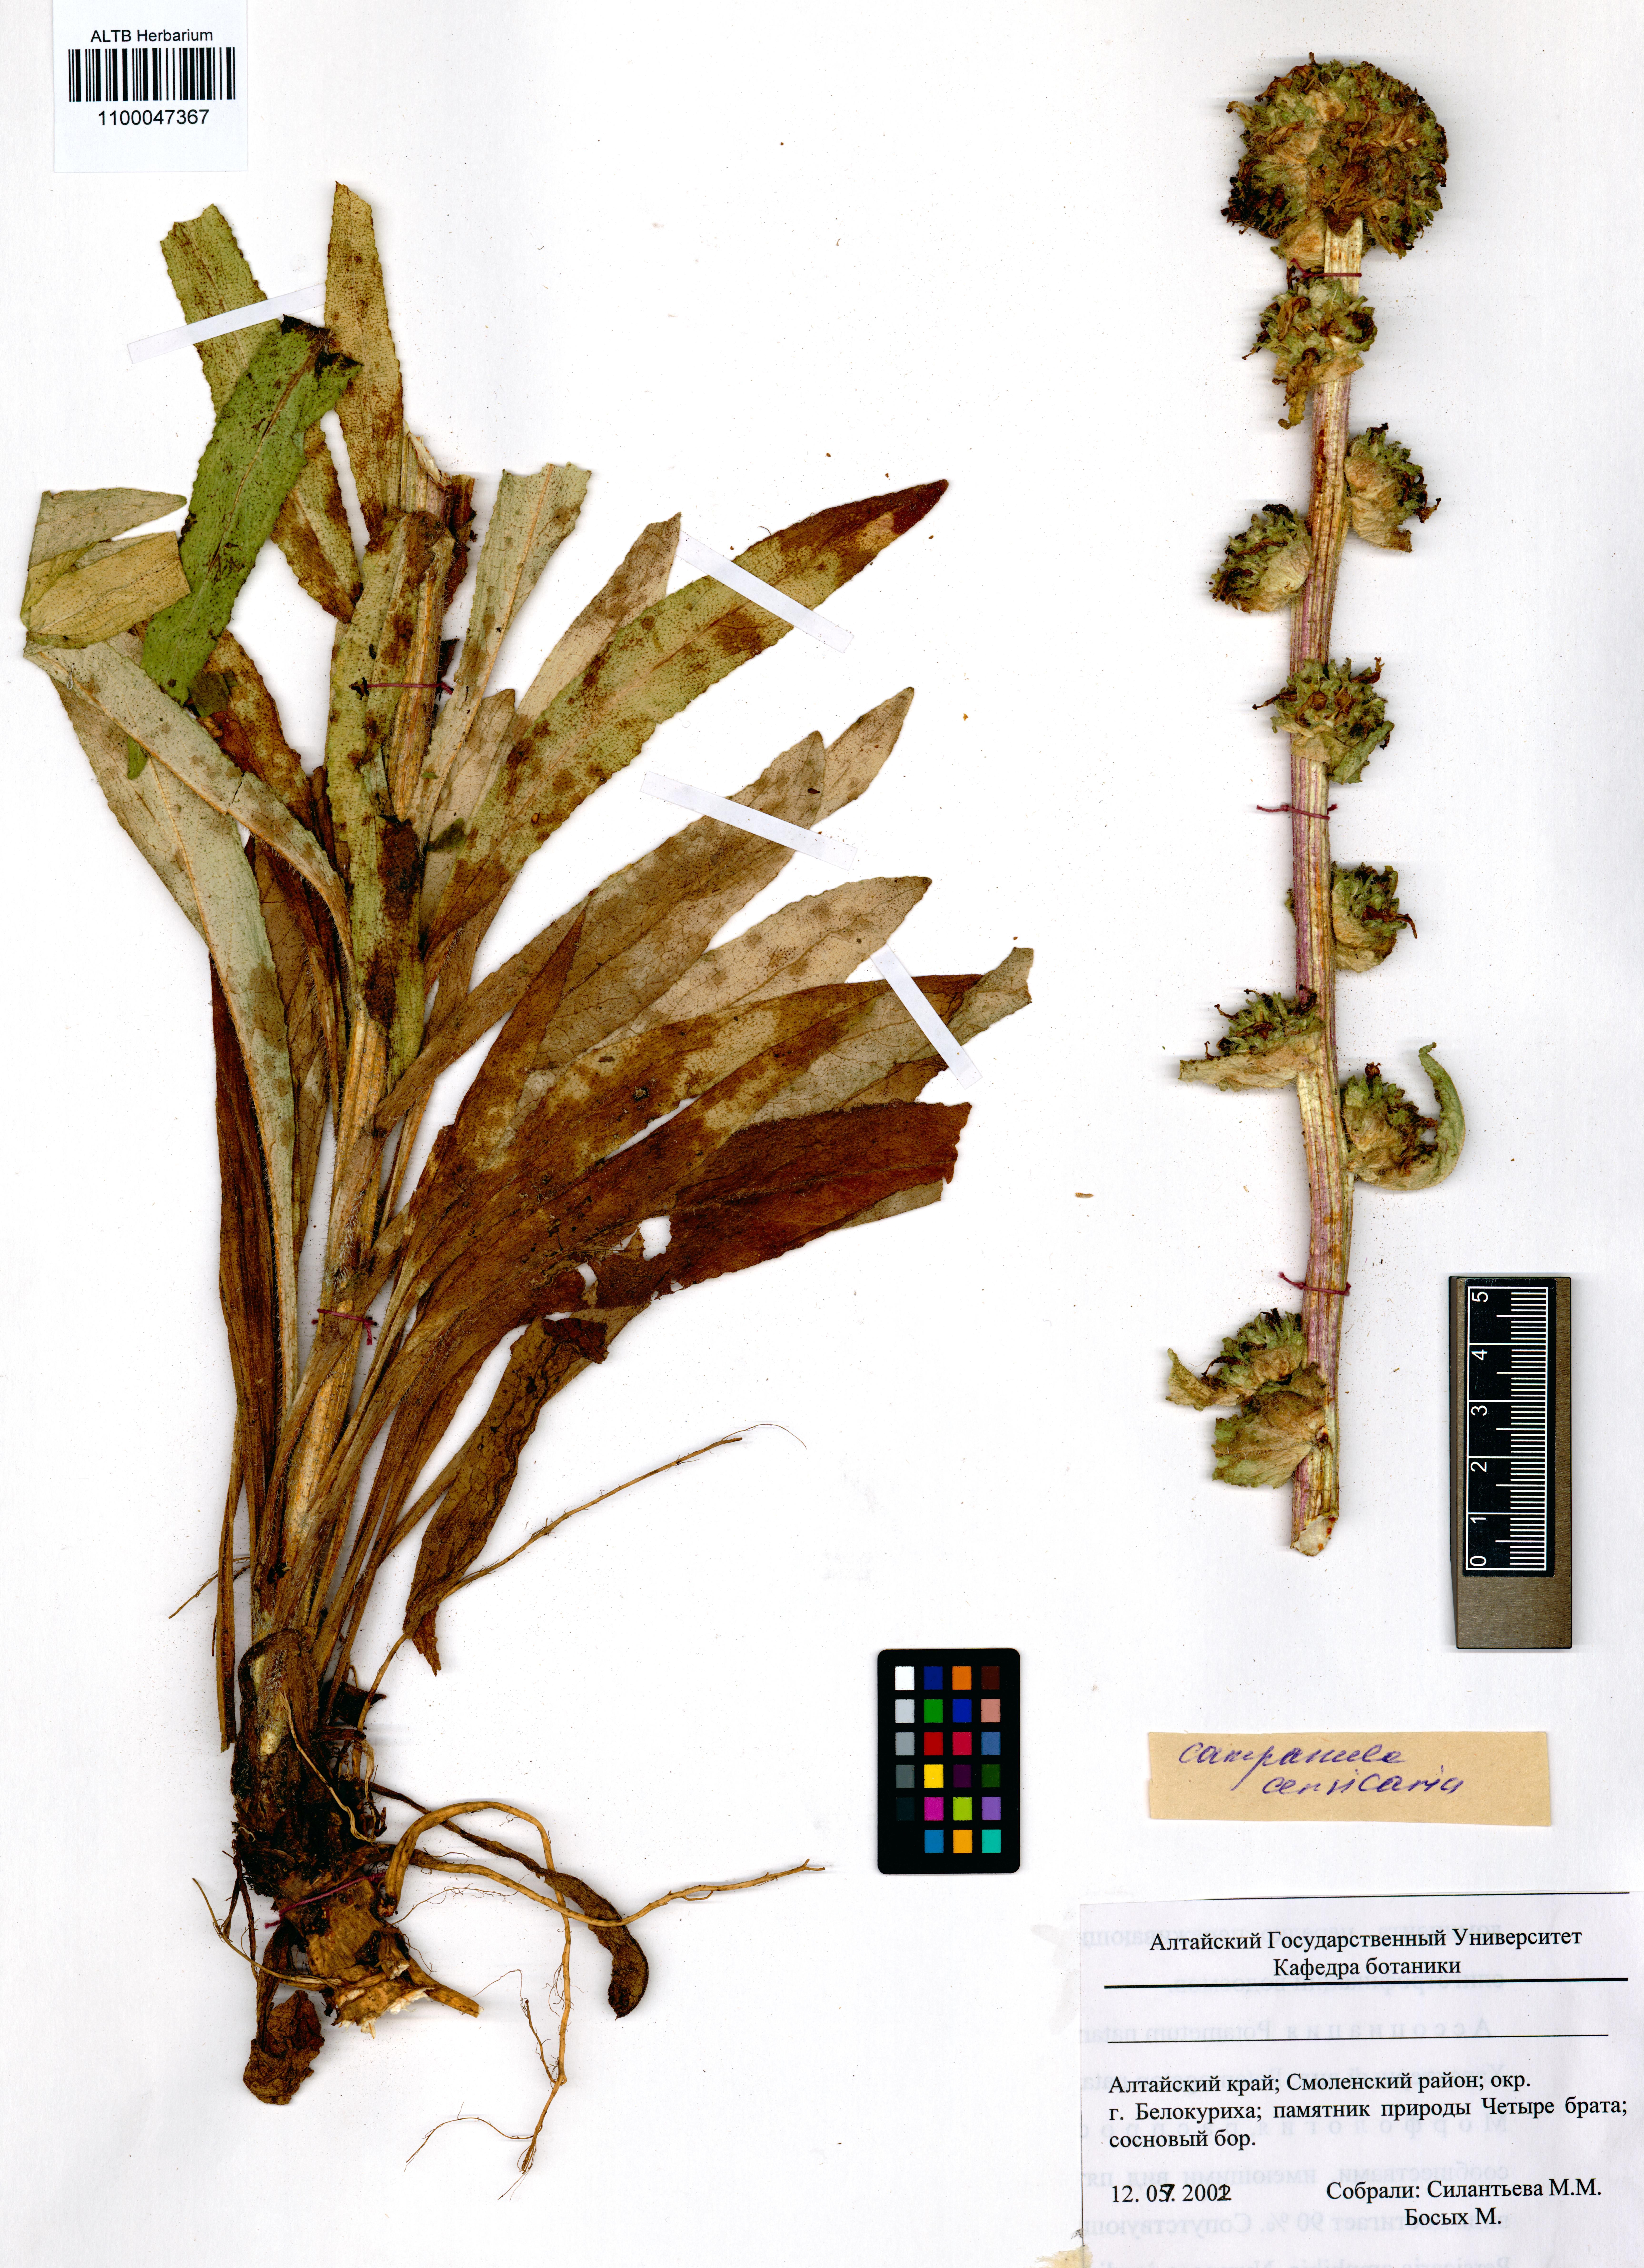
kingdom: Plantae
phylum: Tracheophyta
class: Magnoliopsida
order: Asterales
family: Campanulaceae
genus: Campanula
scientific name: Campanula cervicaria
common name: Bristly bellflower
